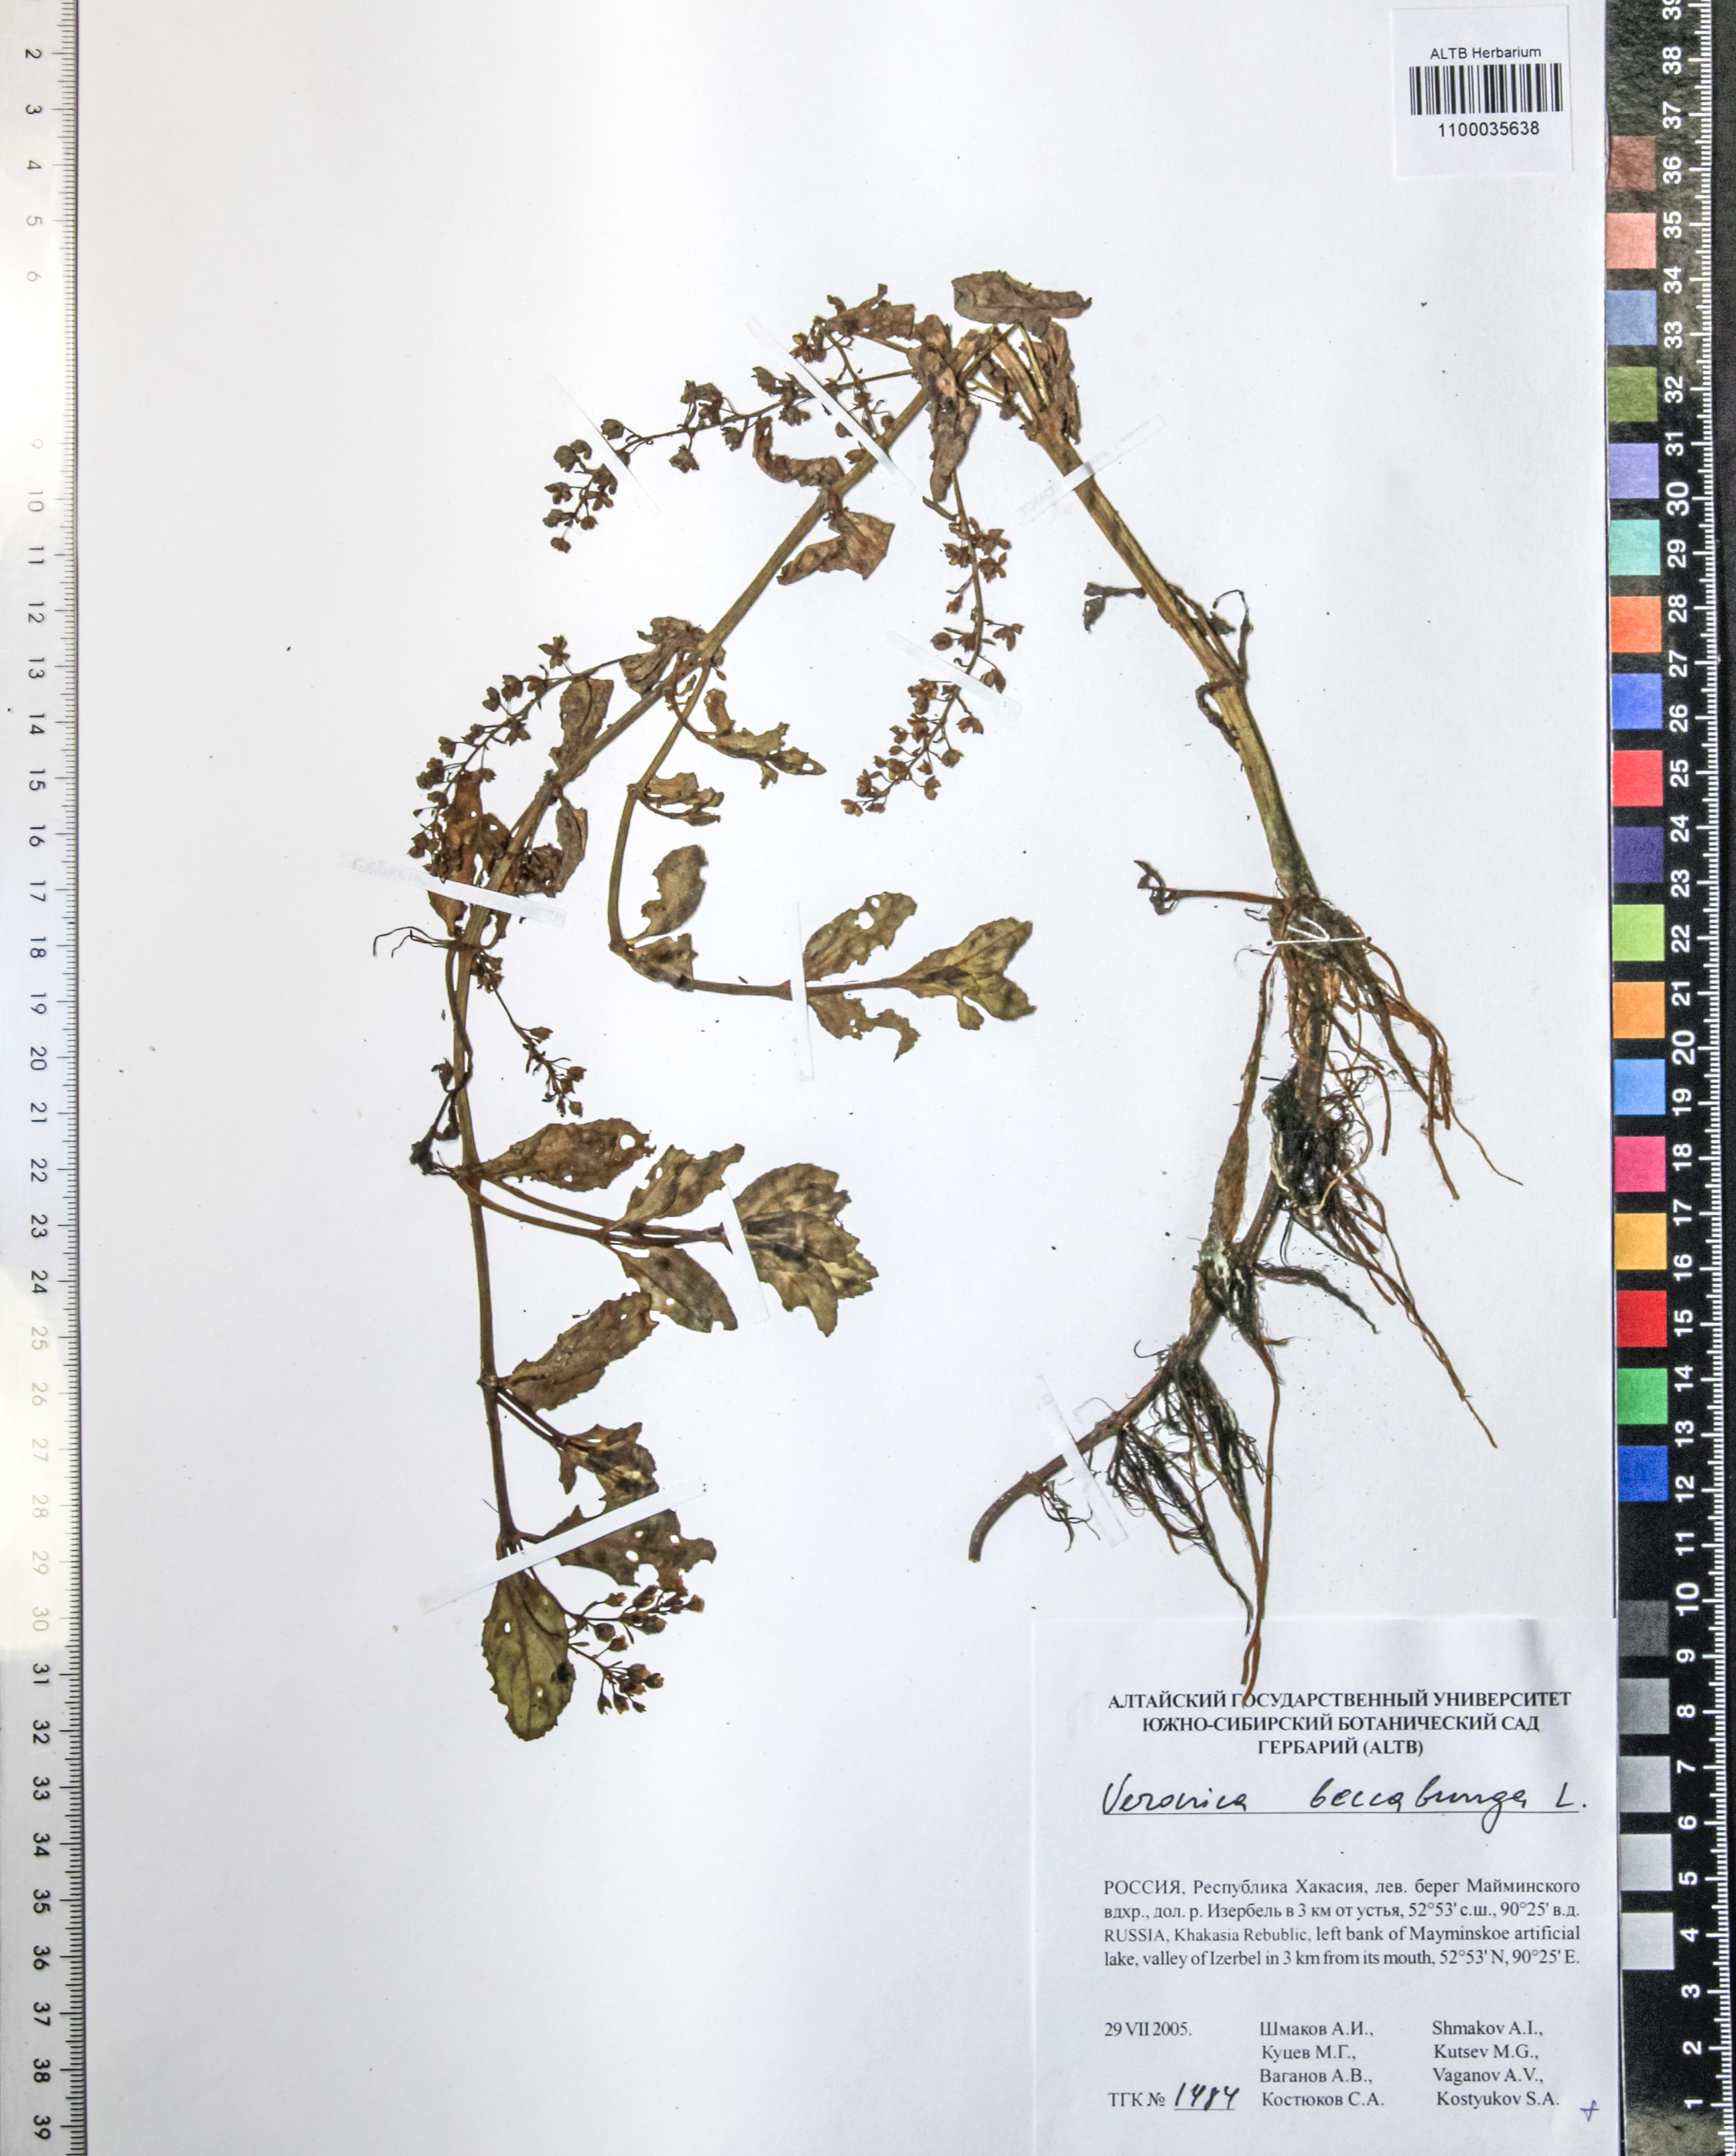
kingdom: Plantae
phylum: Tracheophyta
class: Magnoliopsida
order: Lamiales
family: Plantaginaceae
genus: Veronica
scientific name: Veronica beccabunga
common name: Brooklime
